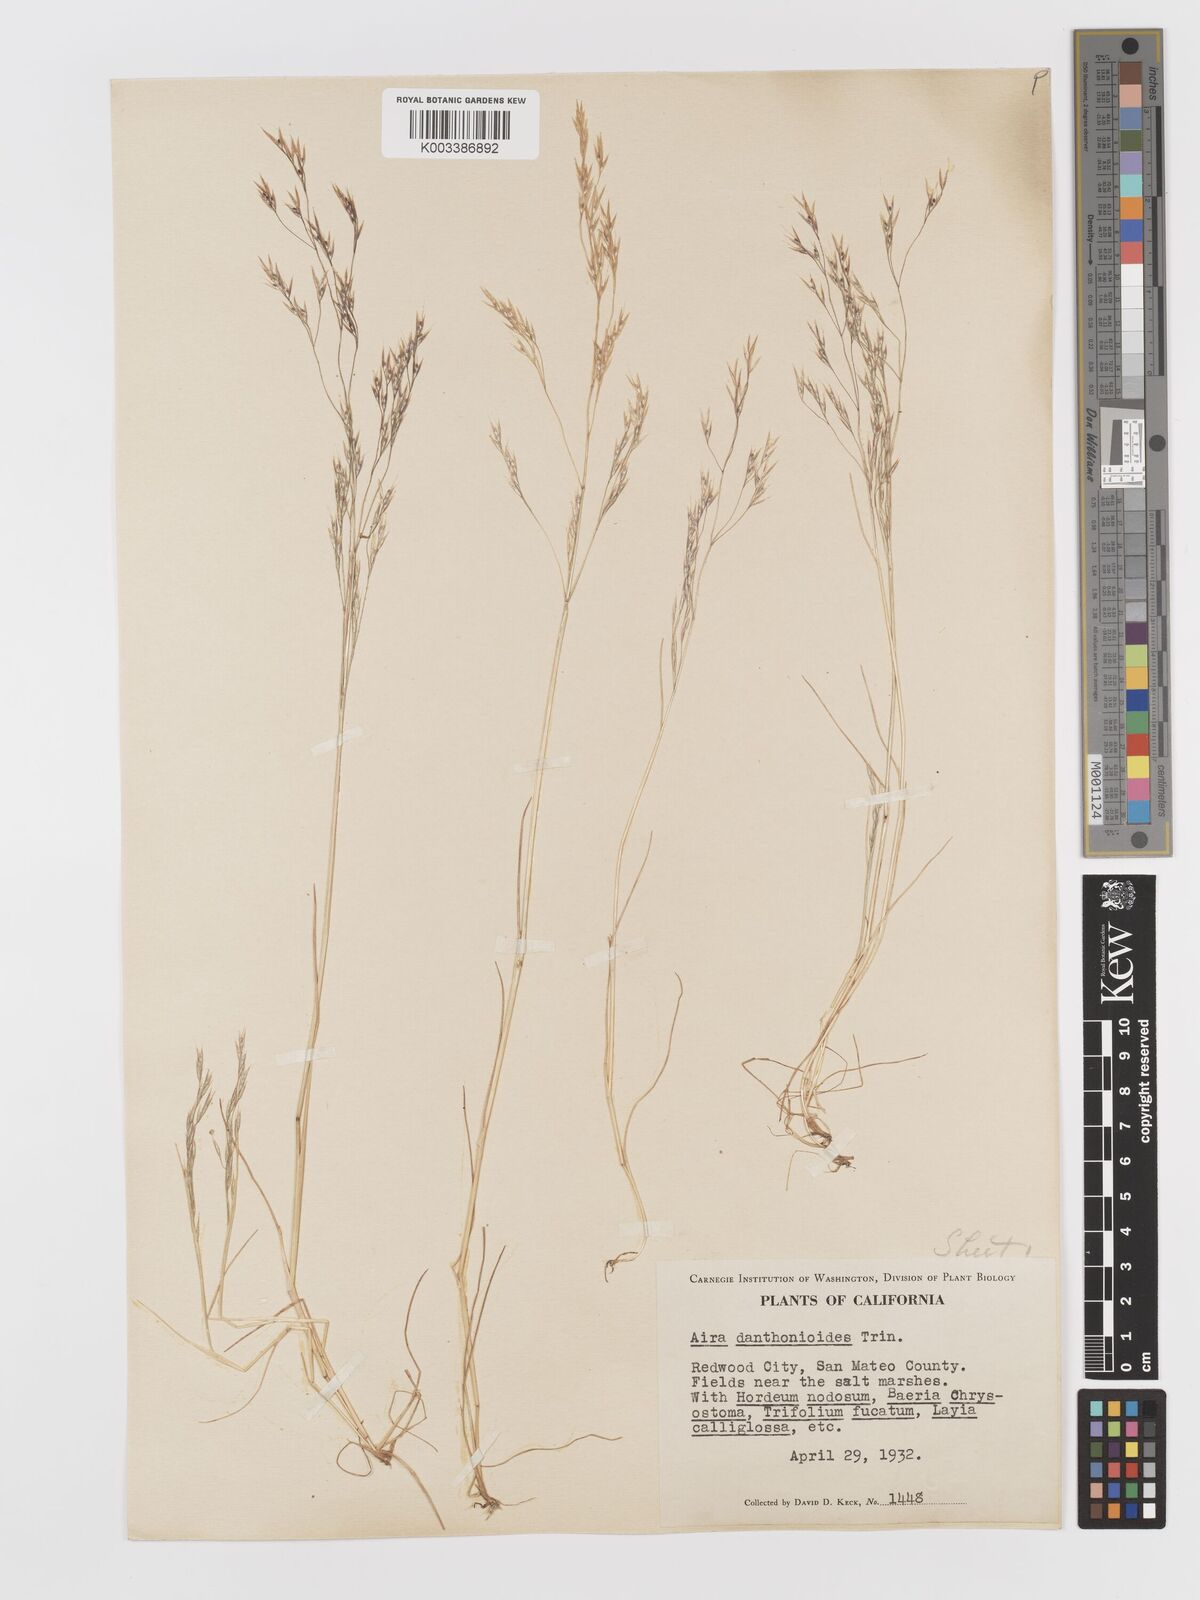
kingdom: Plantae
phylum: Tracheophyta
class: Liliopsida
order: Poales
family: Poaceae
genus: Deschampsia
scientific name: Deschampsia danthonioides
